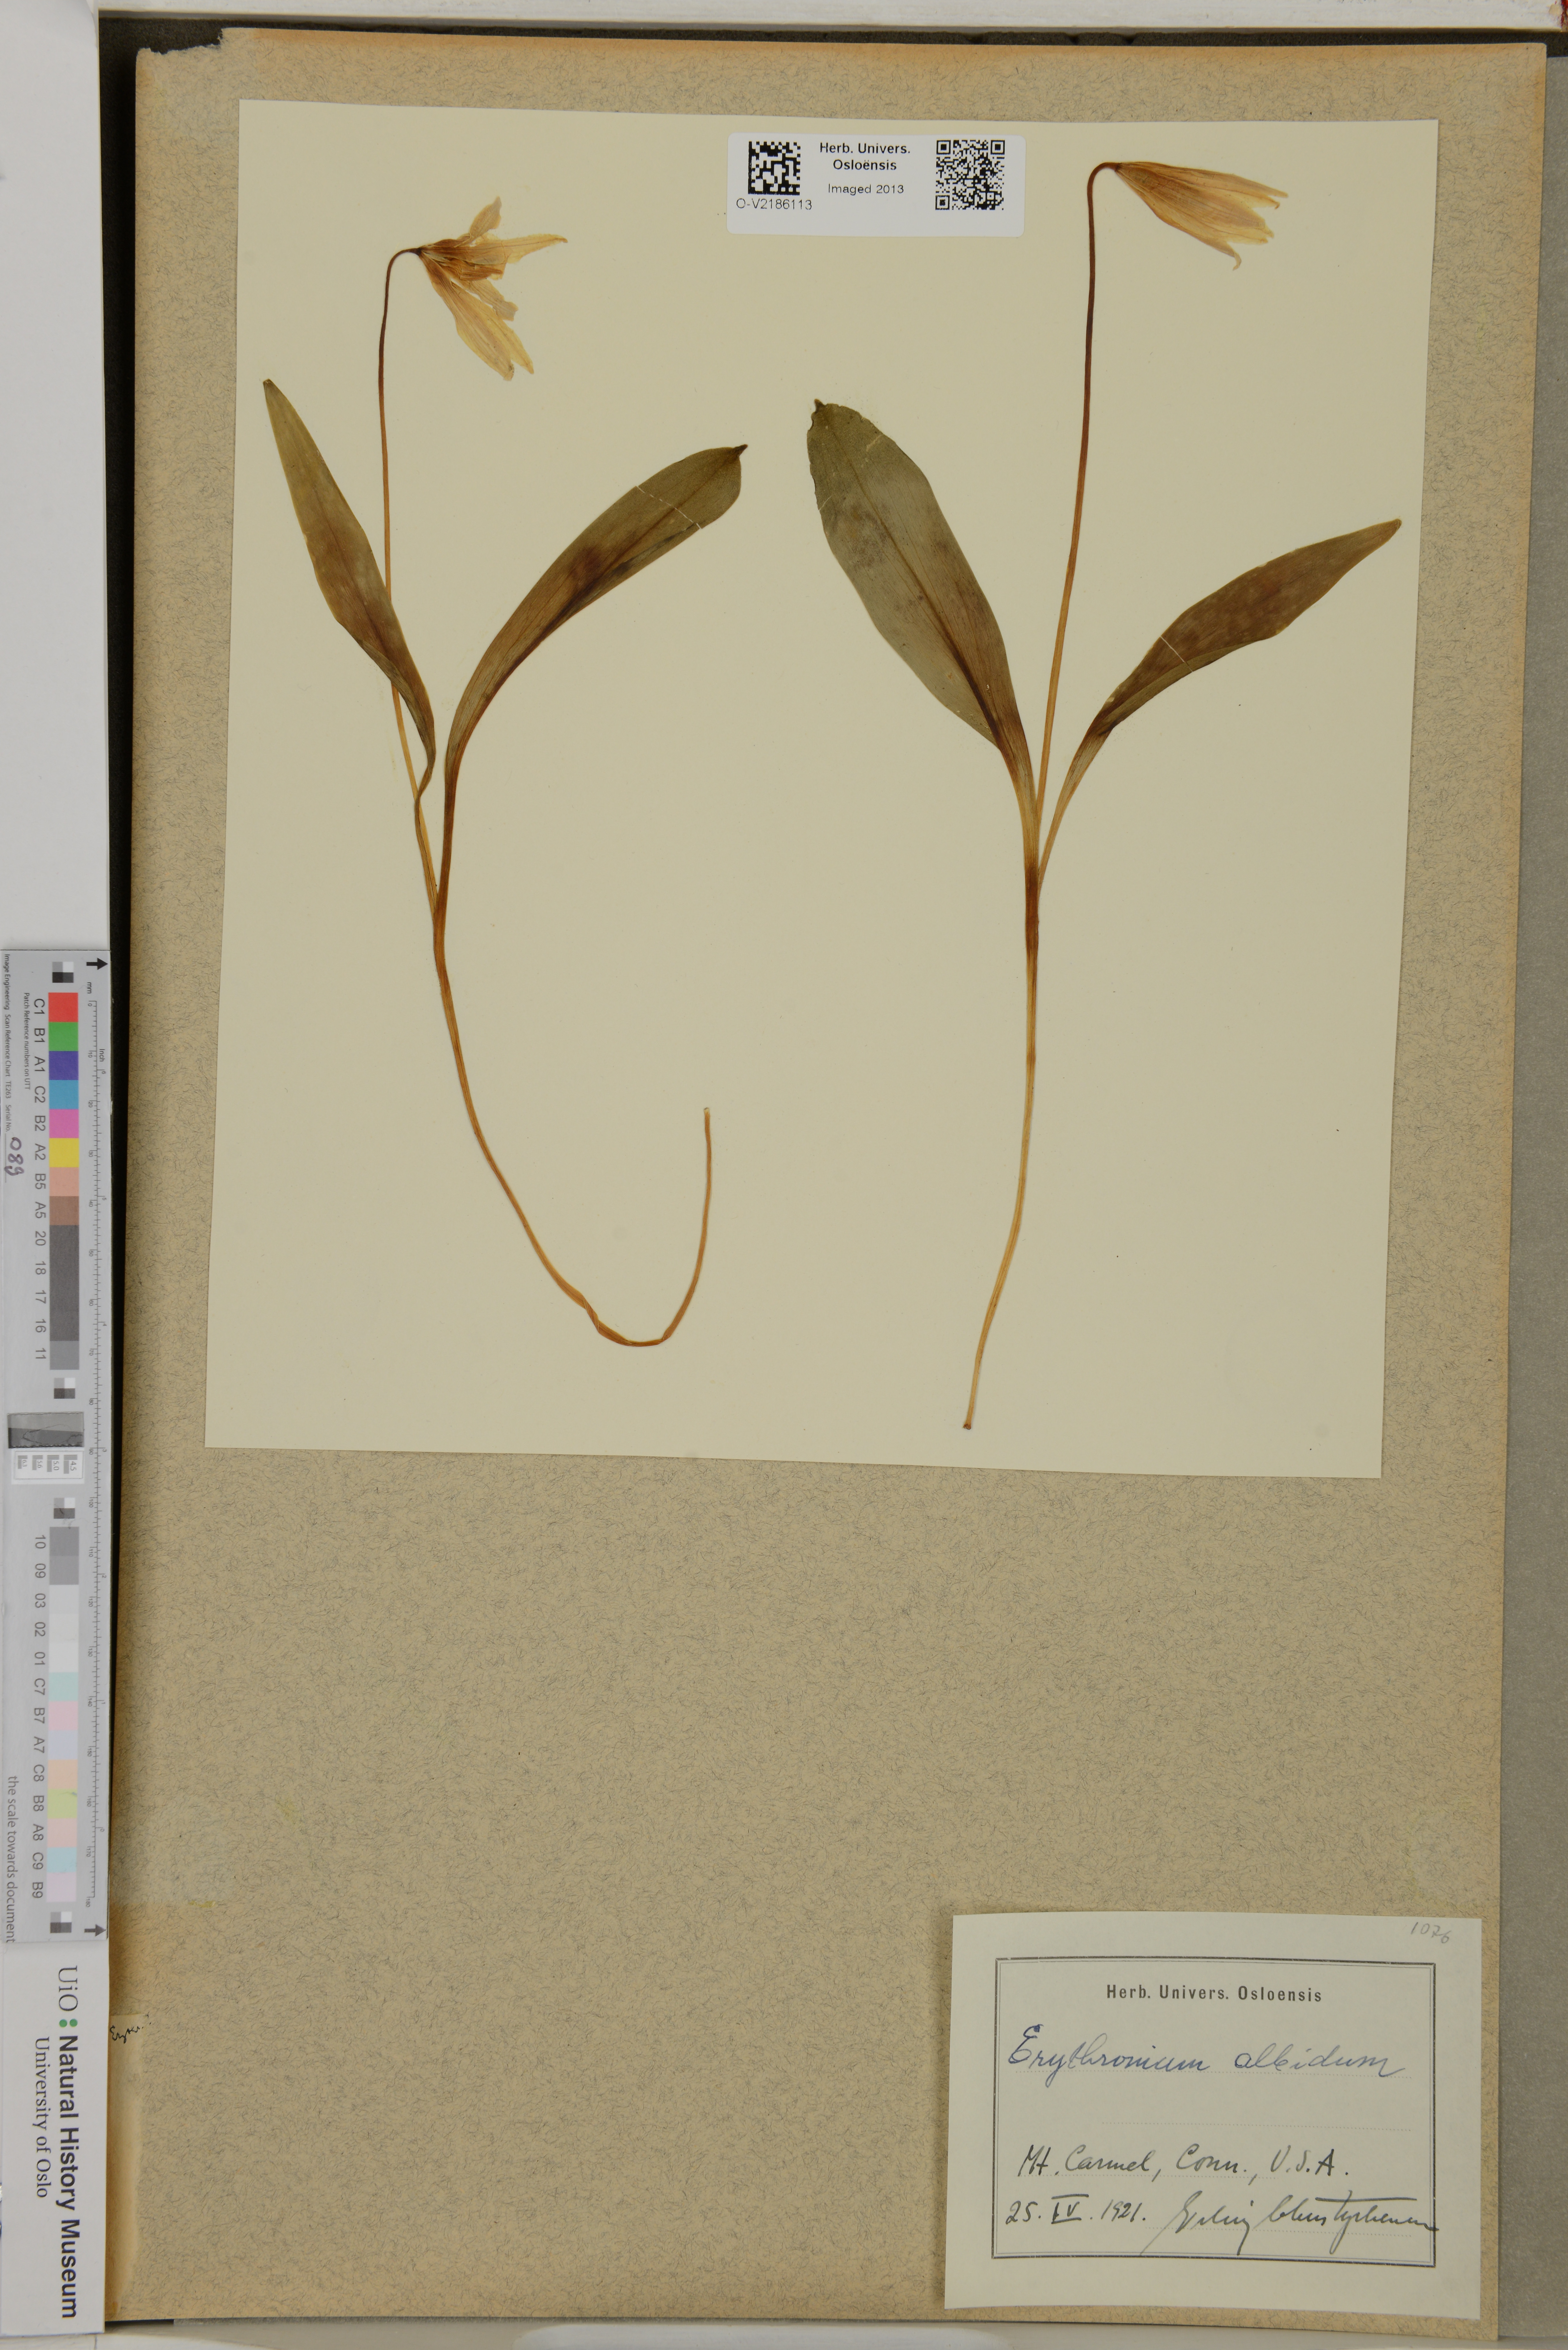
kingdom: Plantae
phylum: Tracheophyta
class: Liliopsida
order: Liliales
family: Liliaceae
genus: Erythronium
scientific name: Erythronium albidum
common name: White trout-lily
